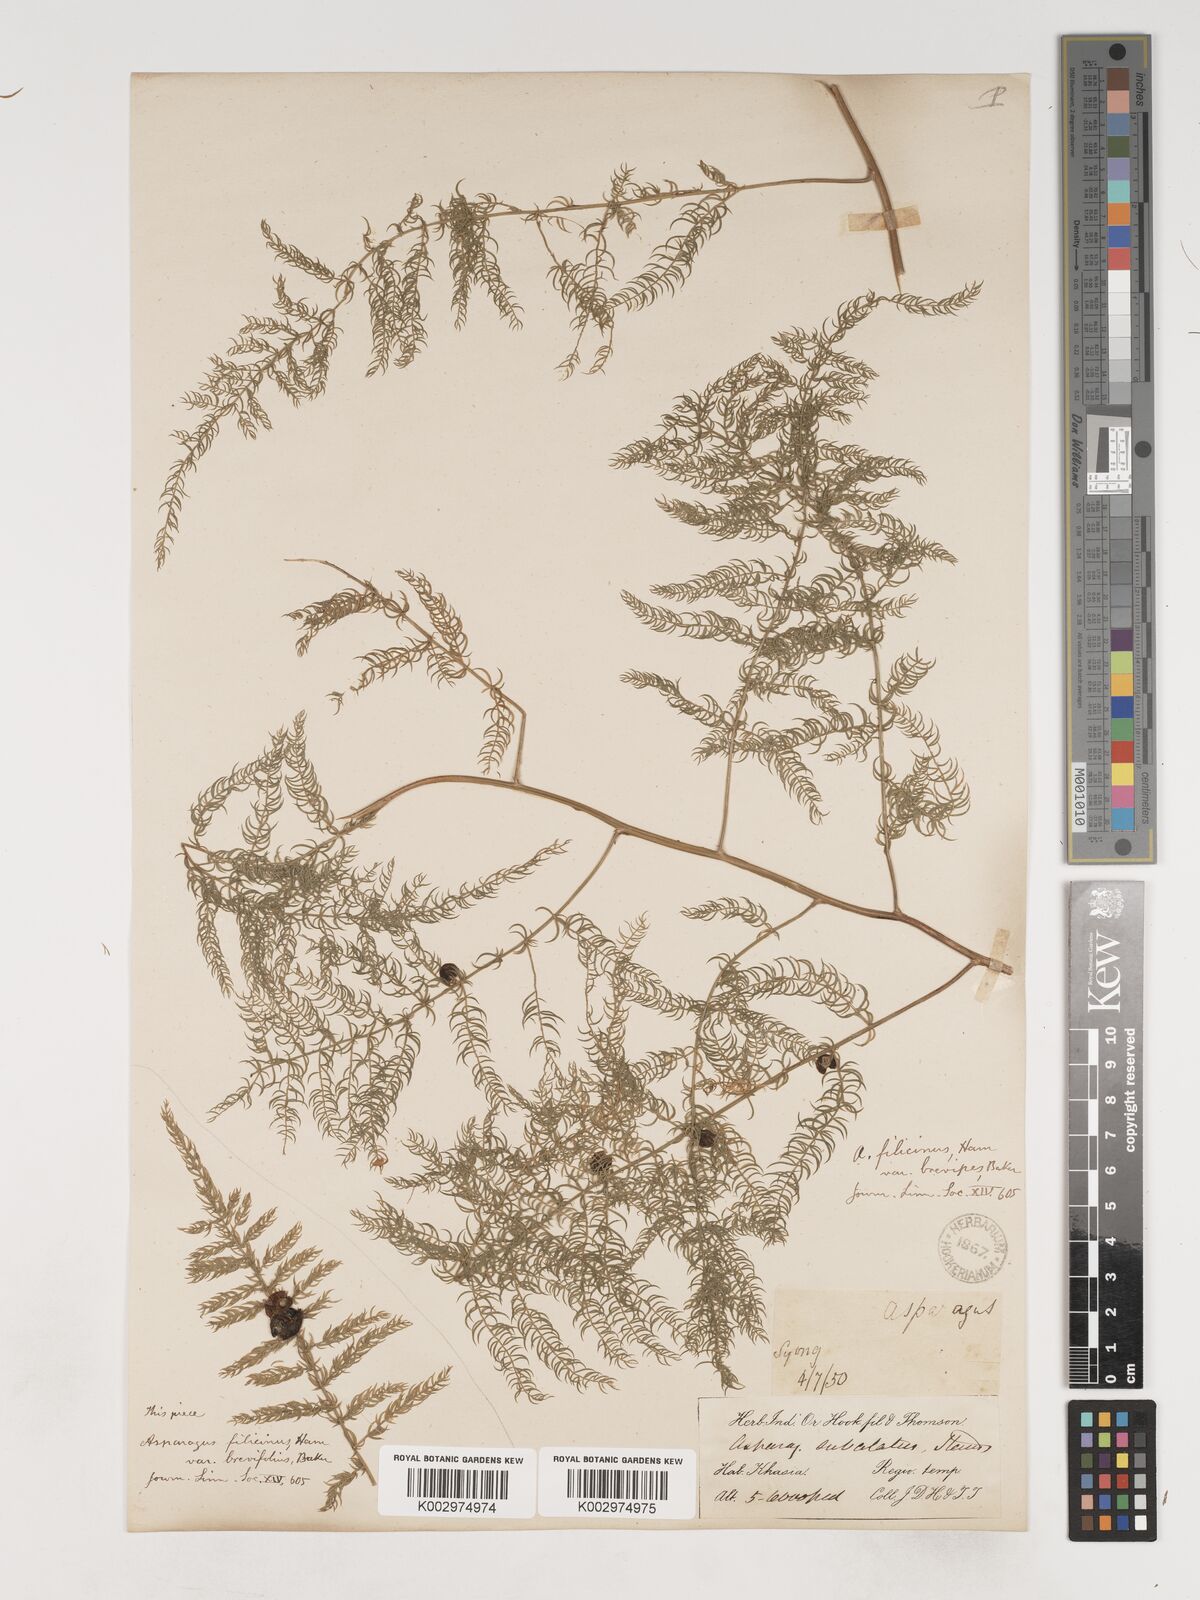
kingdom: Plantae
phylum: Tracheophyta
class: Liliopsida
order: Asparagales
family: Asparagaceae
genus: Asparagus
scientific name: Asparagus filicinus
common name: Fern asparagus
